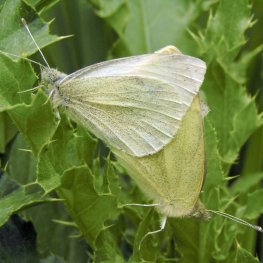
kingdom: Animalia
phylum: Arthropoda
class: Insecta
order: Lepidoptera
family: Pieridae
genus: Pieris
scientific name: Pieris rapae
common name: Cabbage White
